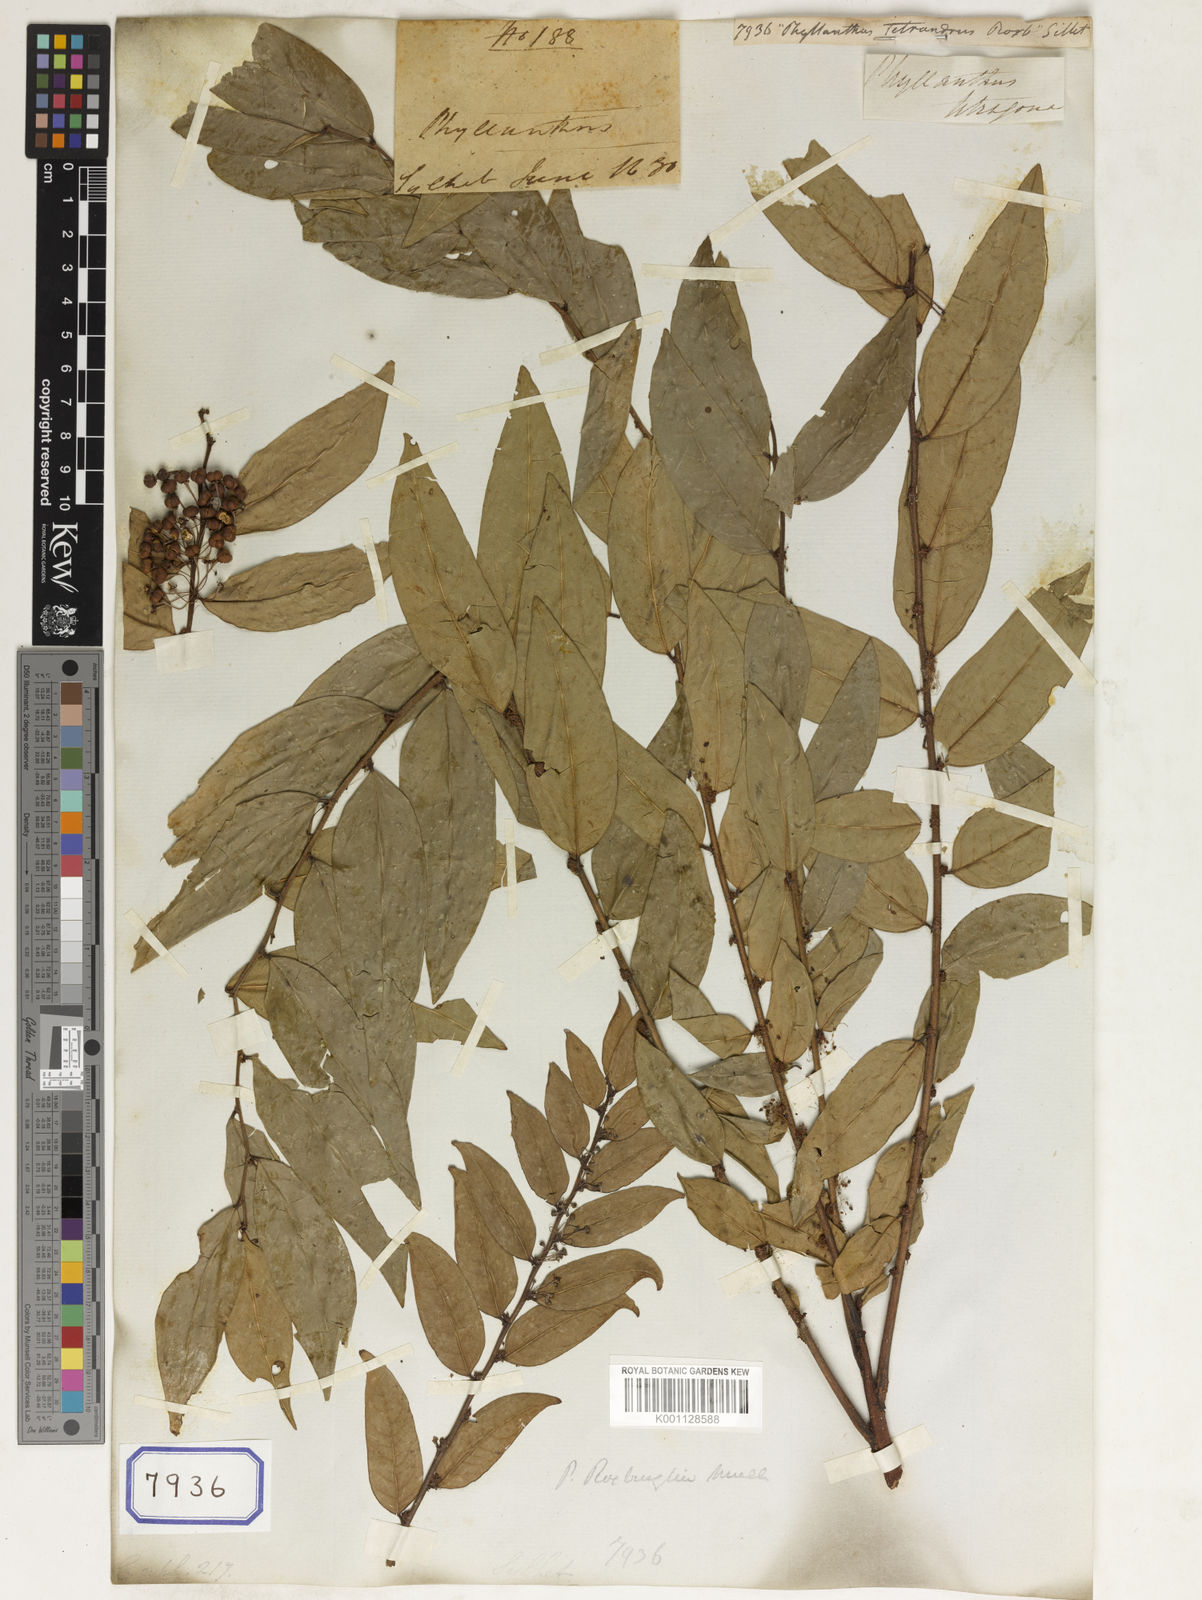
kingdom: Plantae
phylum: Tracheophyta
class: Magnoliopsida
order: Malpighiales
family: Euphorbiaceae
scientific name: Euphorbiaceae
